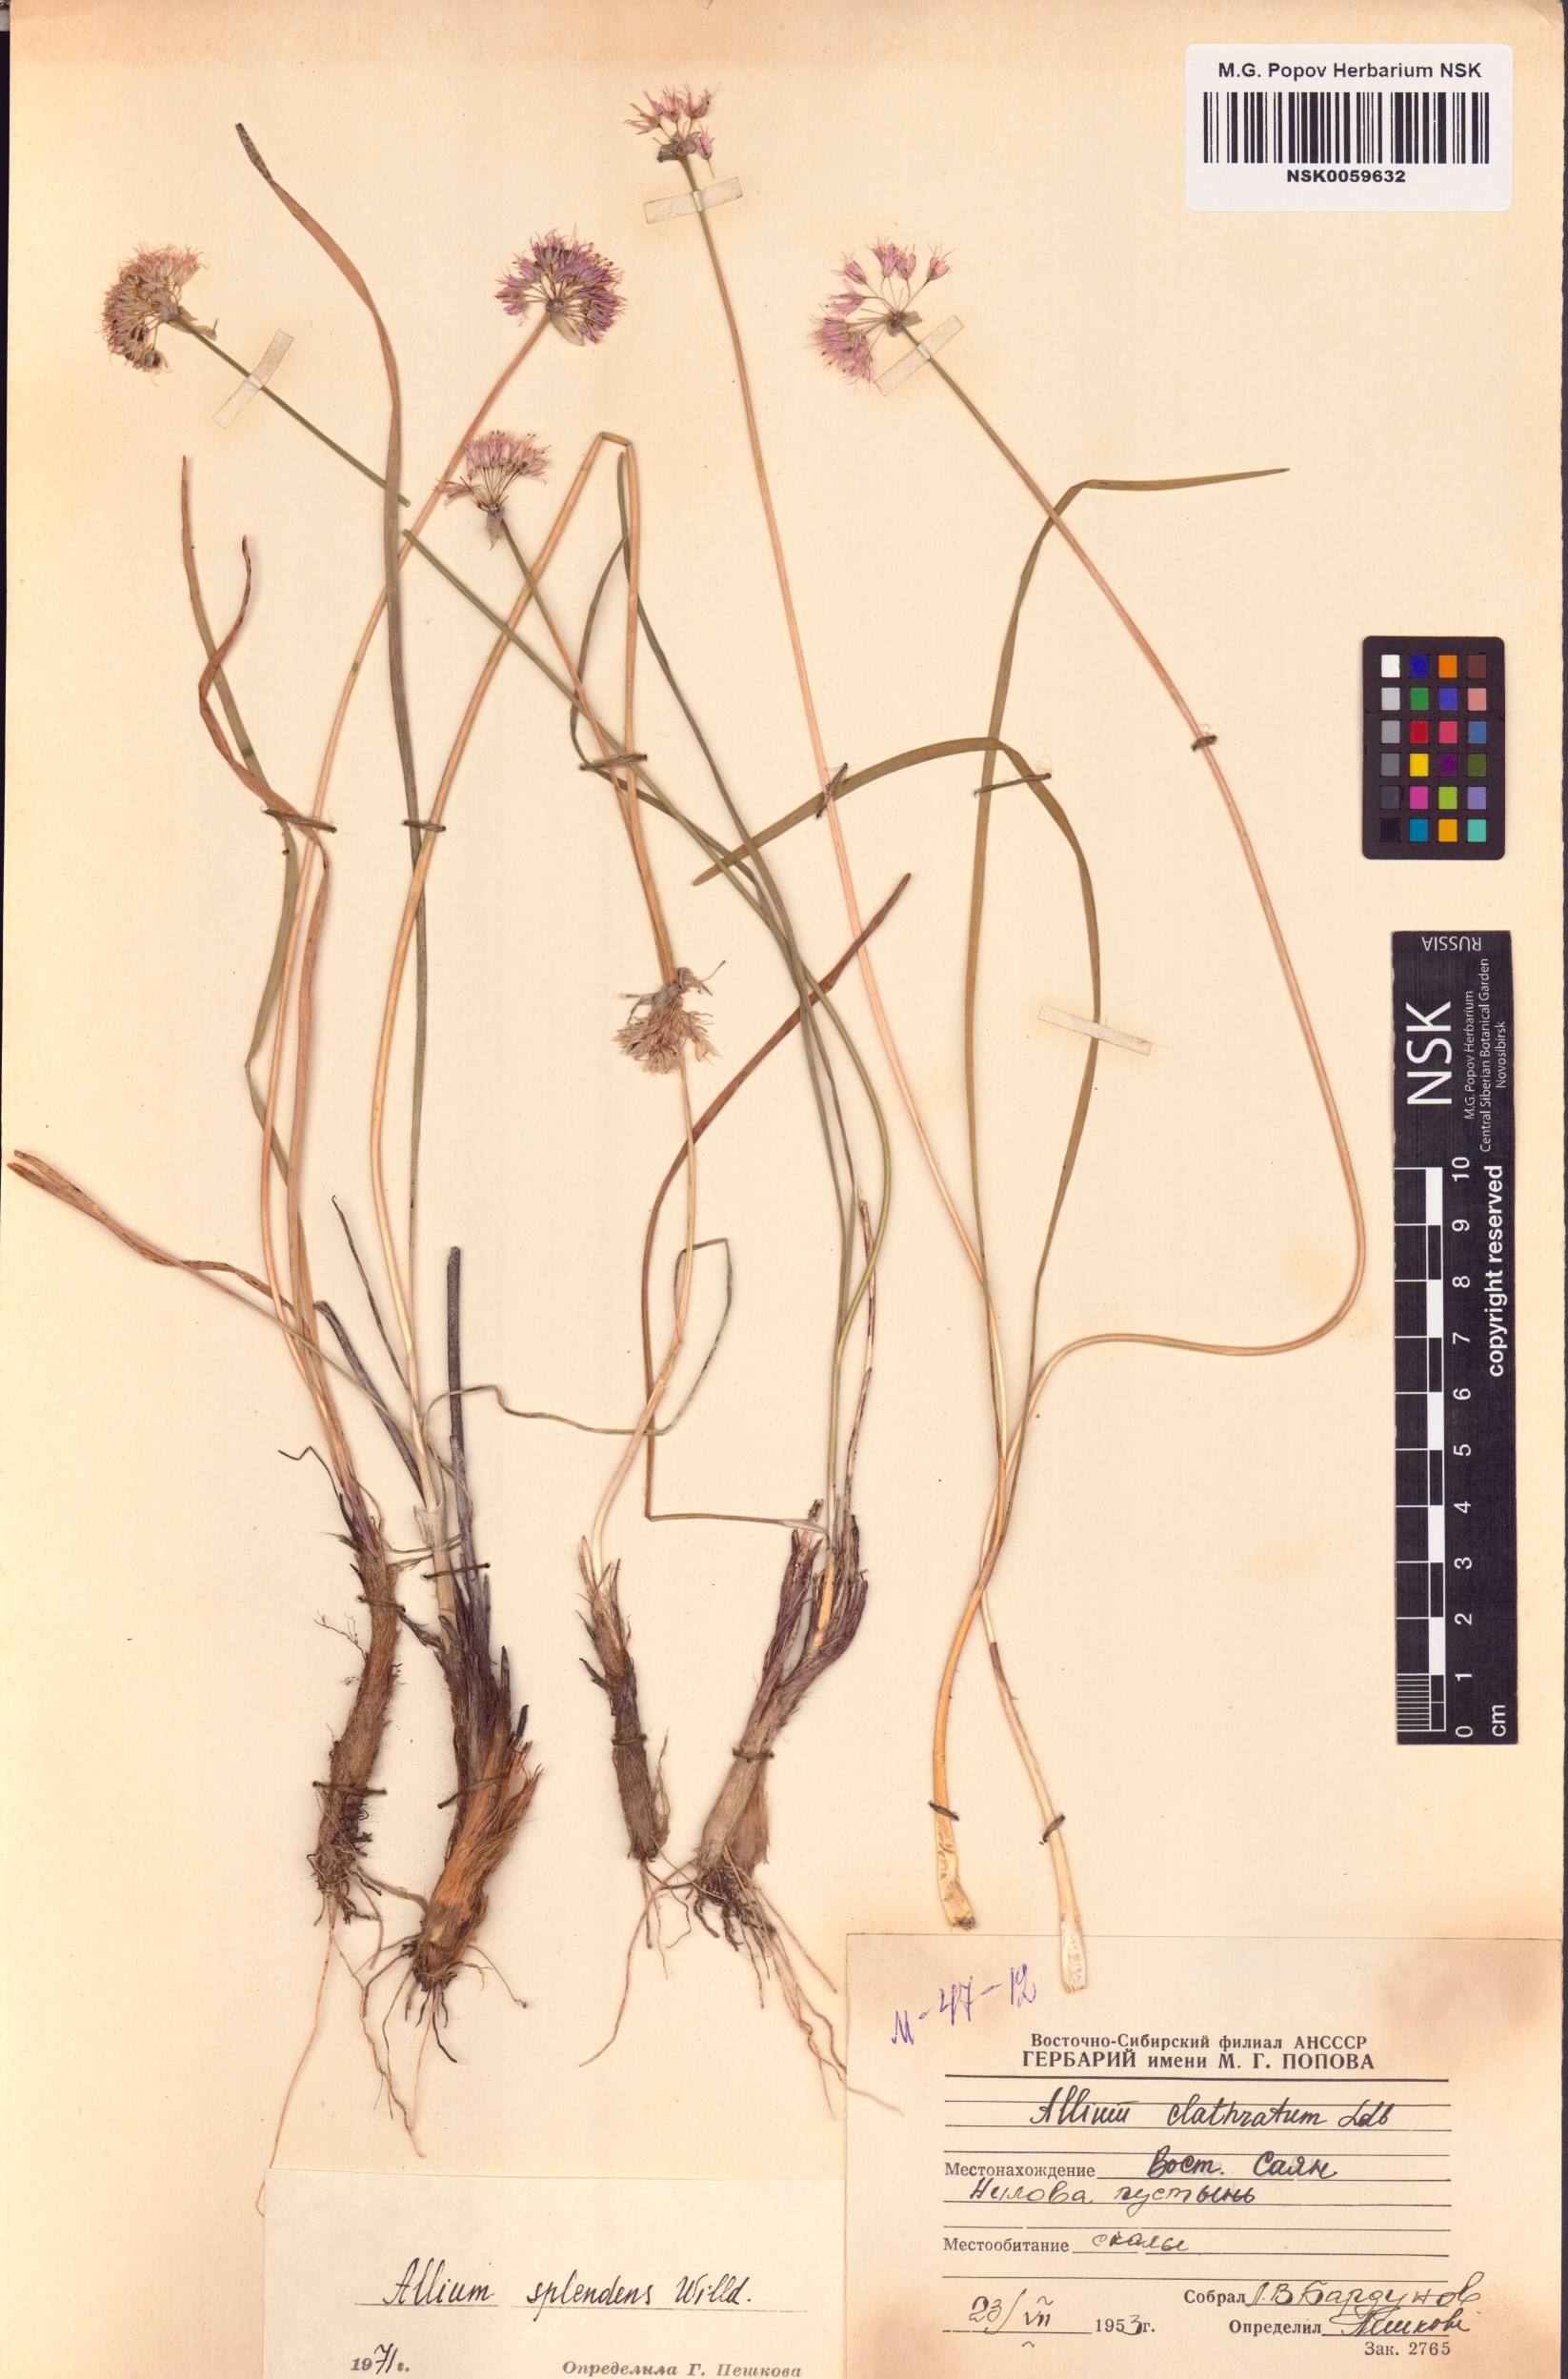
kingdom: Plantae
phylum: Tracheophyta
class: Liliopsida
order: Asparagales
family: Amaryllidaceae
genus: Allium
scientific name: Allium splendens
